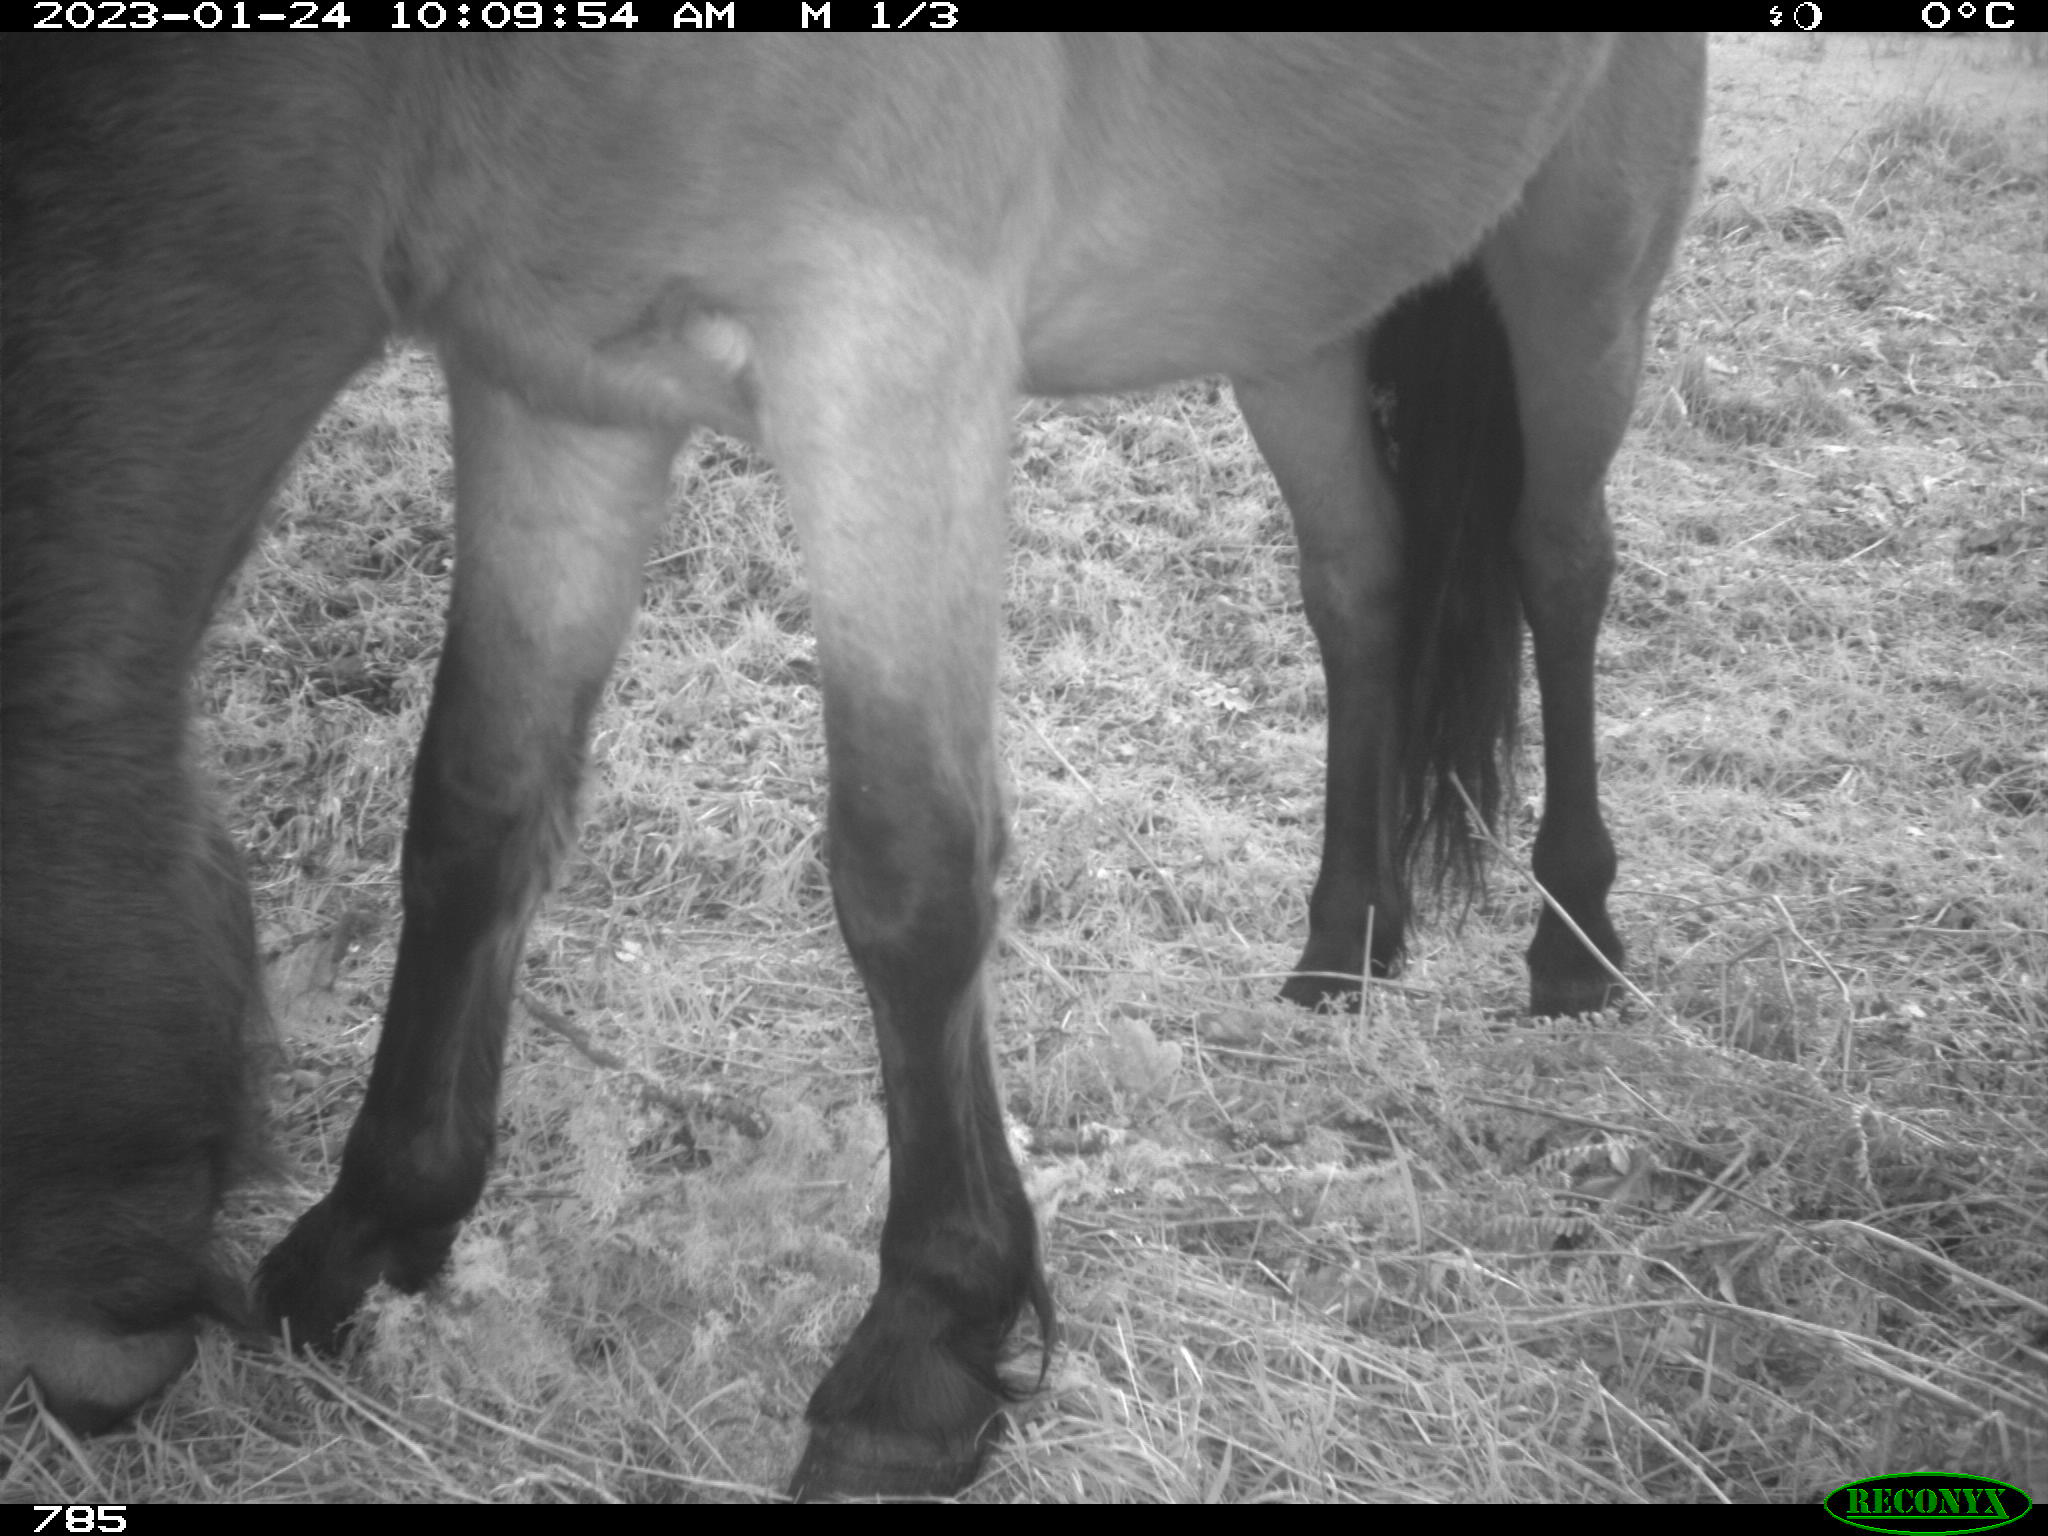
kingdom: Animalia
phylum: Chordata
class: Mammalia
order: Perissodactyla
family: Equidae
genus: Equus
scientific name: Equus caballus
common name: Horse
